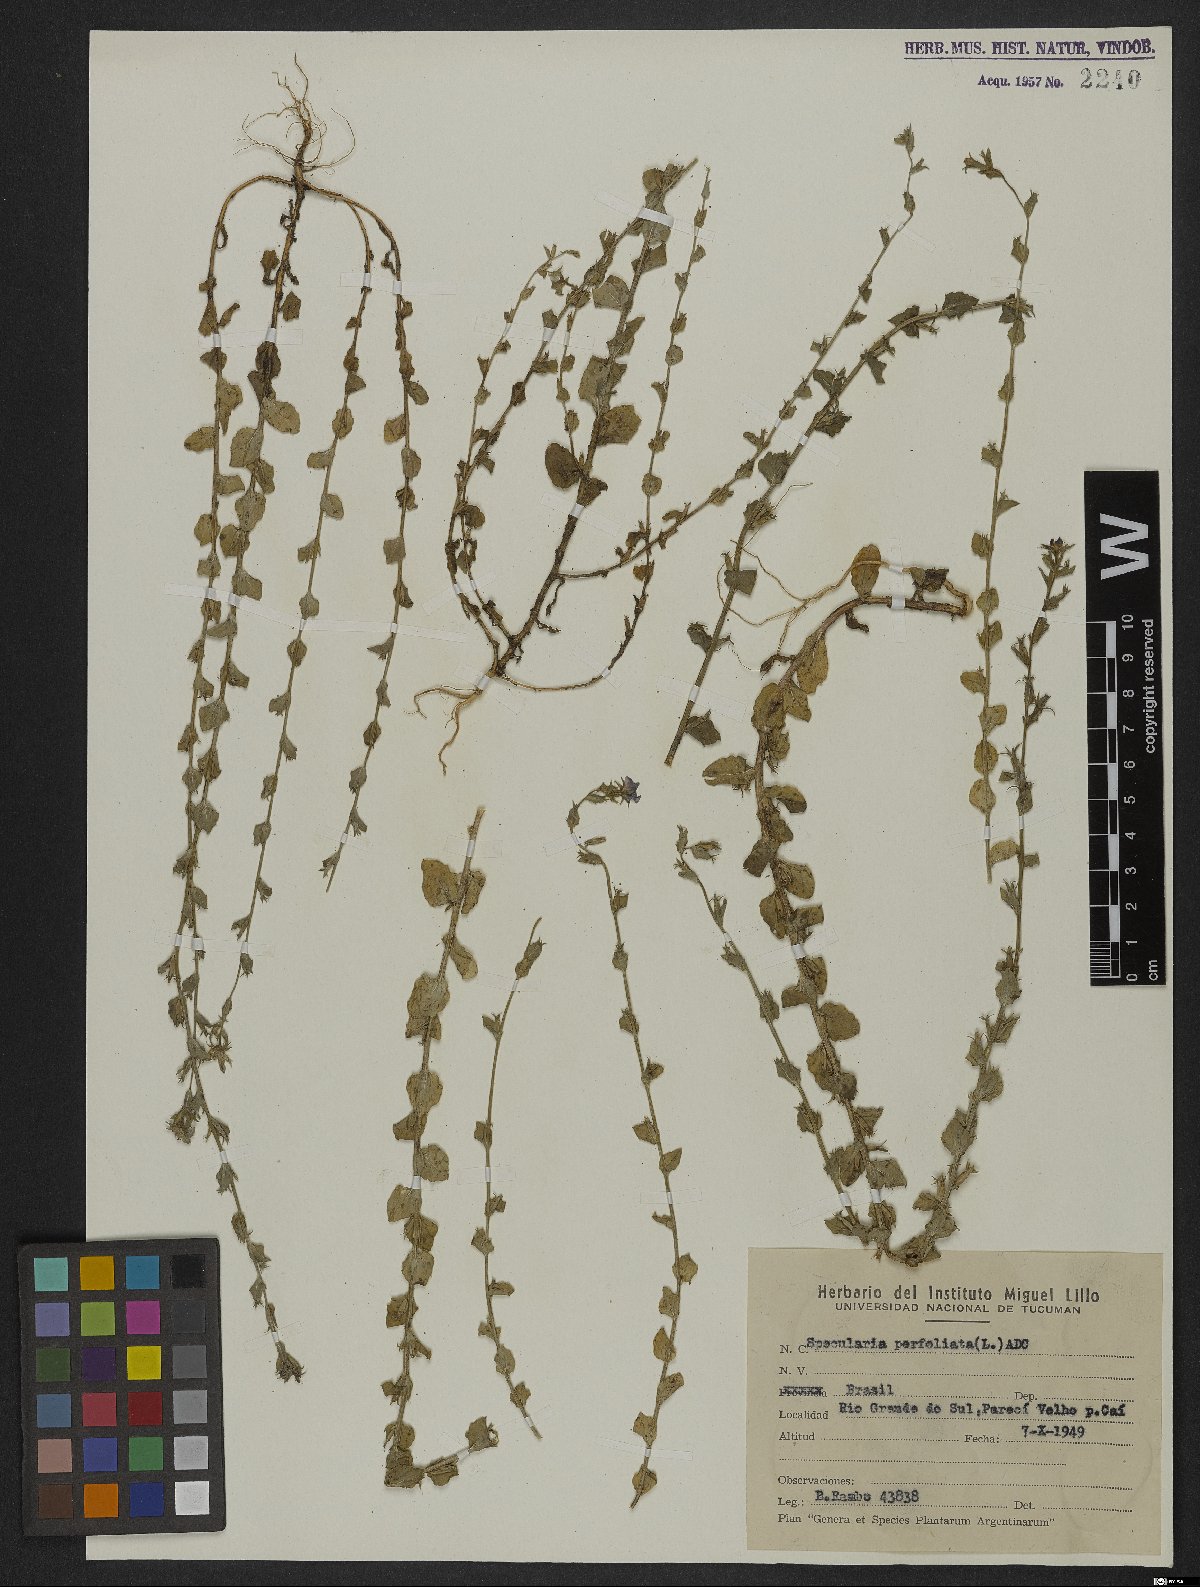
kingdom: Plantae
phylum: Tracheophyta
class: Magnoliopsida
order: Asterales
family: Campanulaceae
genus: Triodanis
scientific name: Triodanis perfoliata
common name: Clasping venus' looking-glass
